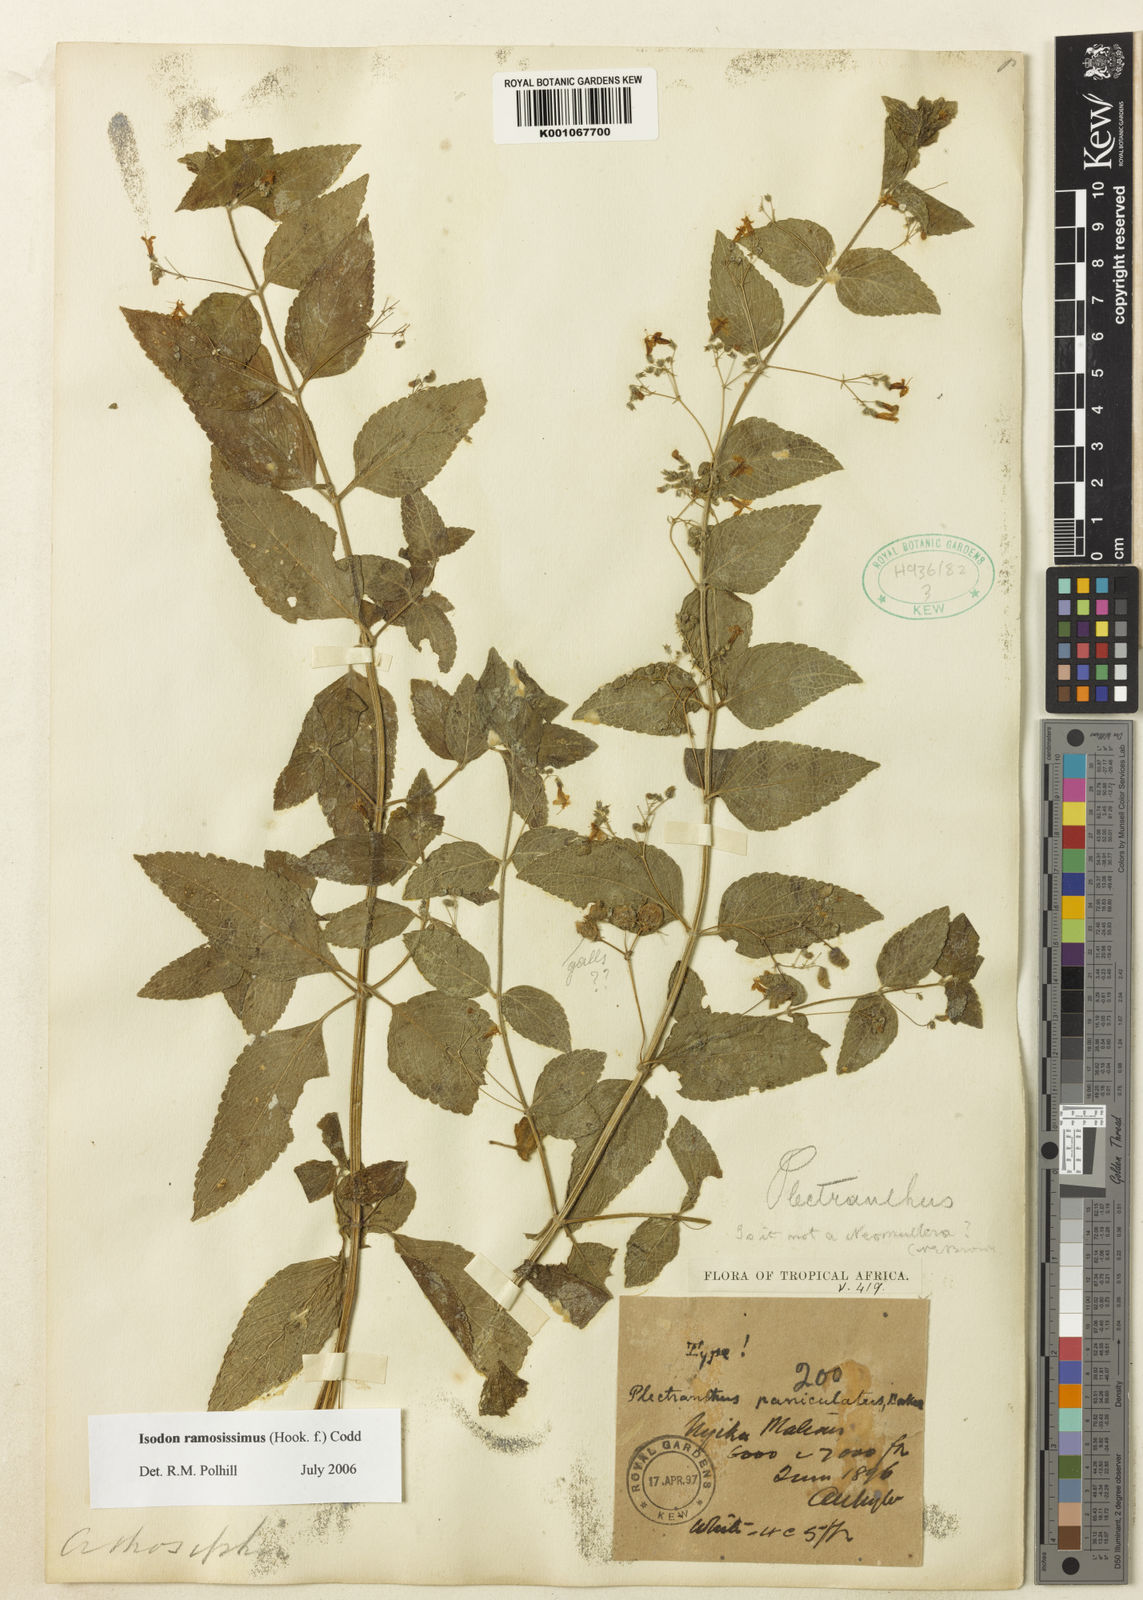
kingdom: Plantae
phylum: Tracheophyta
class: Magnoliopsida
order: Lamiales
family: Lamiaceae
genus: Isodon
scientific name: Isodon ramosissimus
